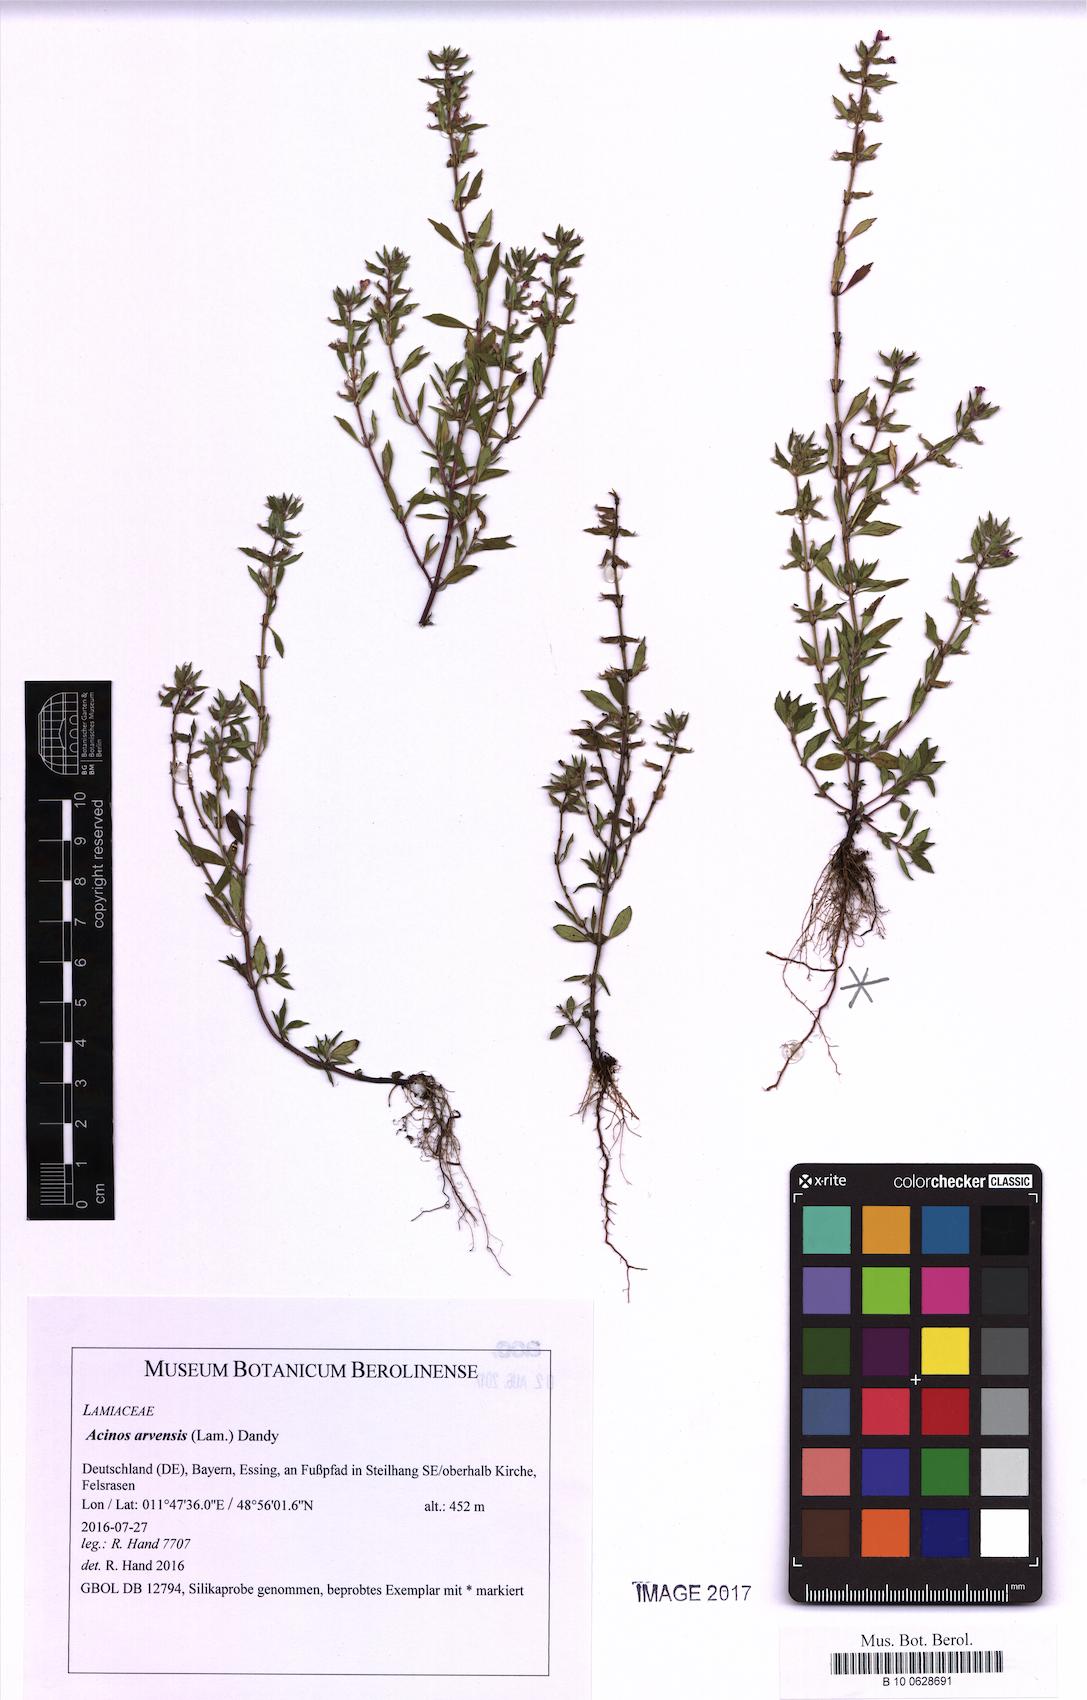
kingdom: Plantae
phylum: Tracheophyta
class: Magnoliopsida
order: Lamiales
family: Lamiaceae
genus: Clinopodium
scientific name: Clinopodium acinos
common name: Basil thyme
